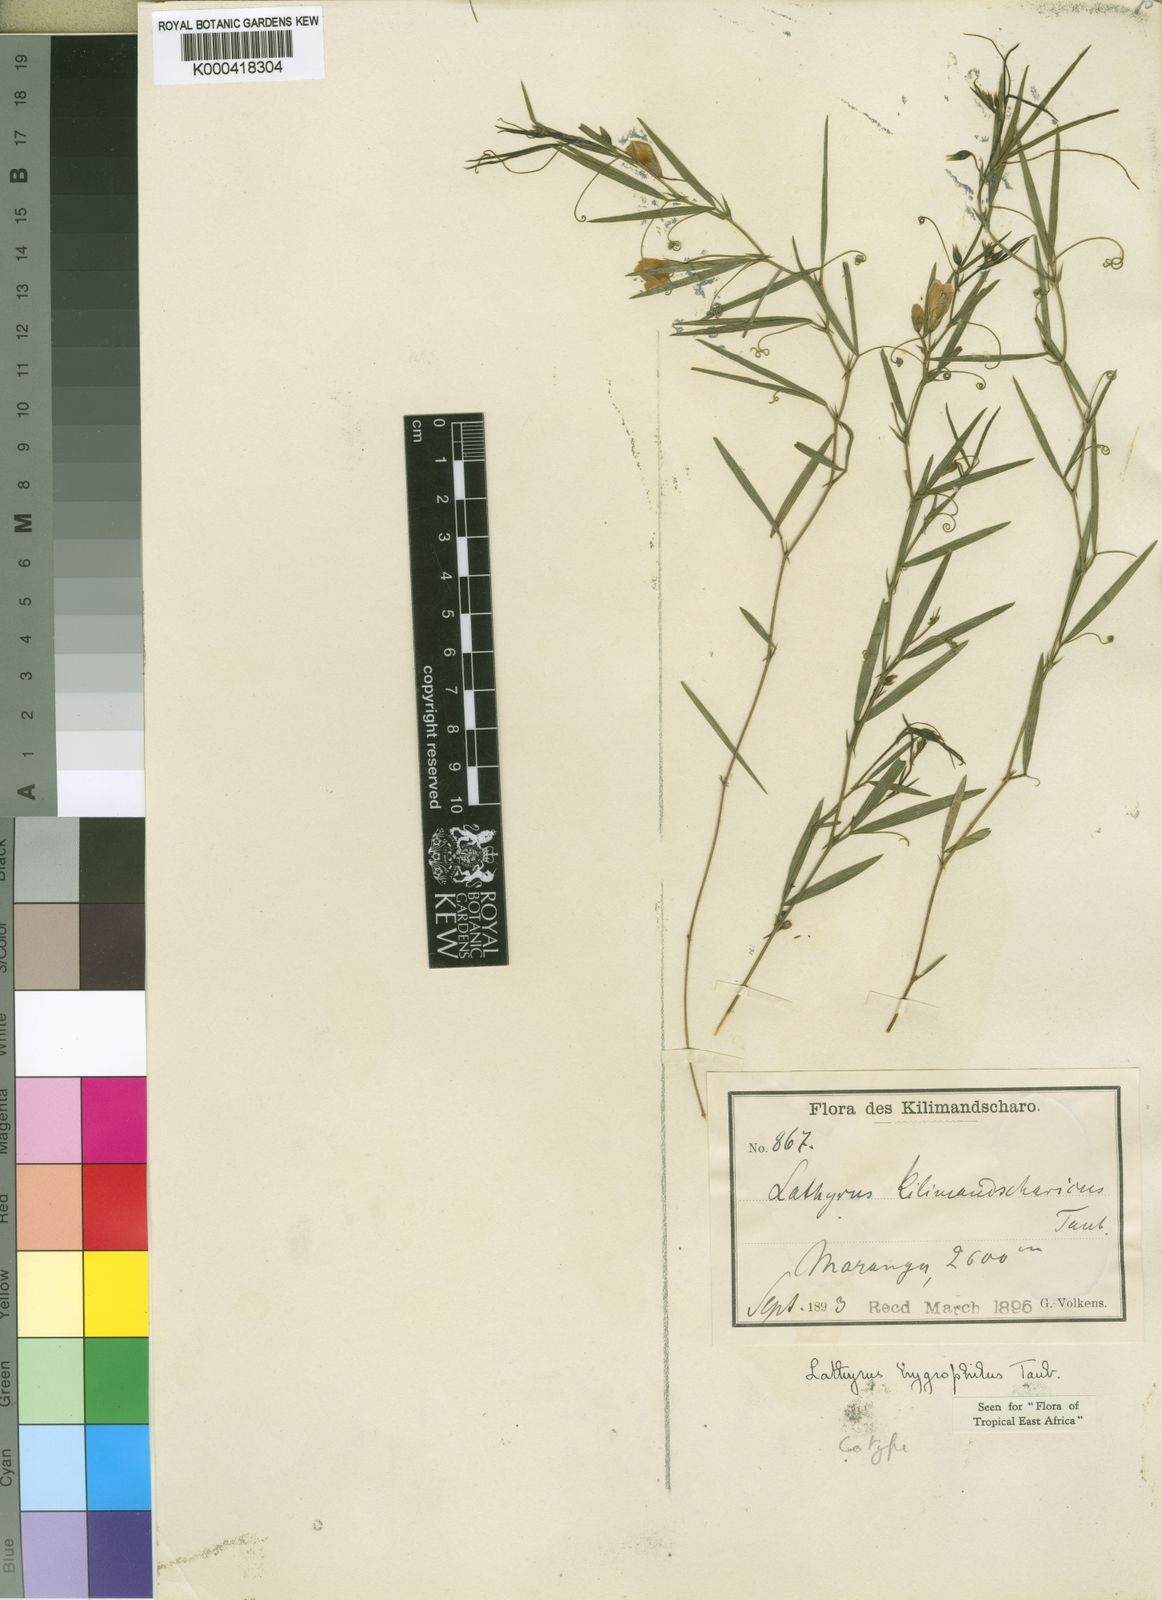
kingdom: Plantae
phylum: Tracheophyta
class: Magnoliopsida
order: Fabales
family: Fabaceae
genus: Lathyrus
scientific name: Lathyrus hygrophilus
